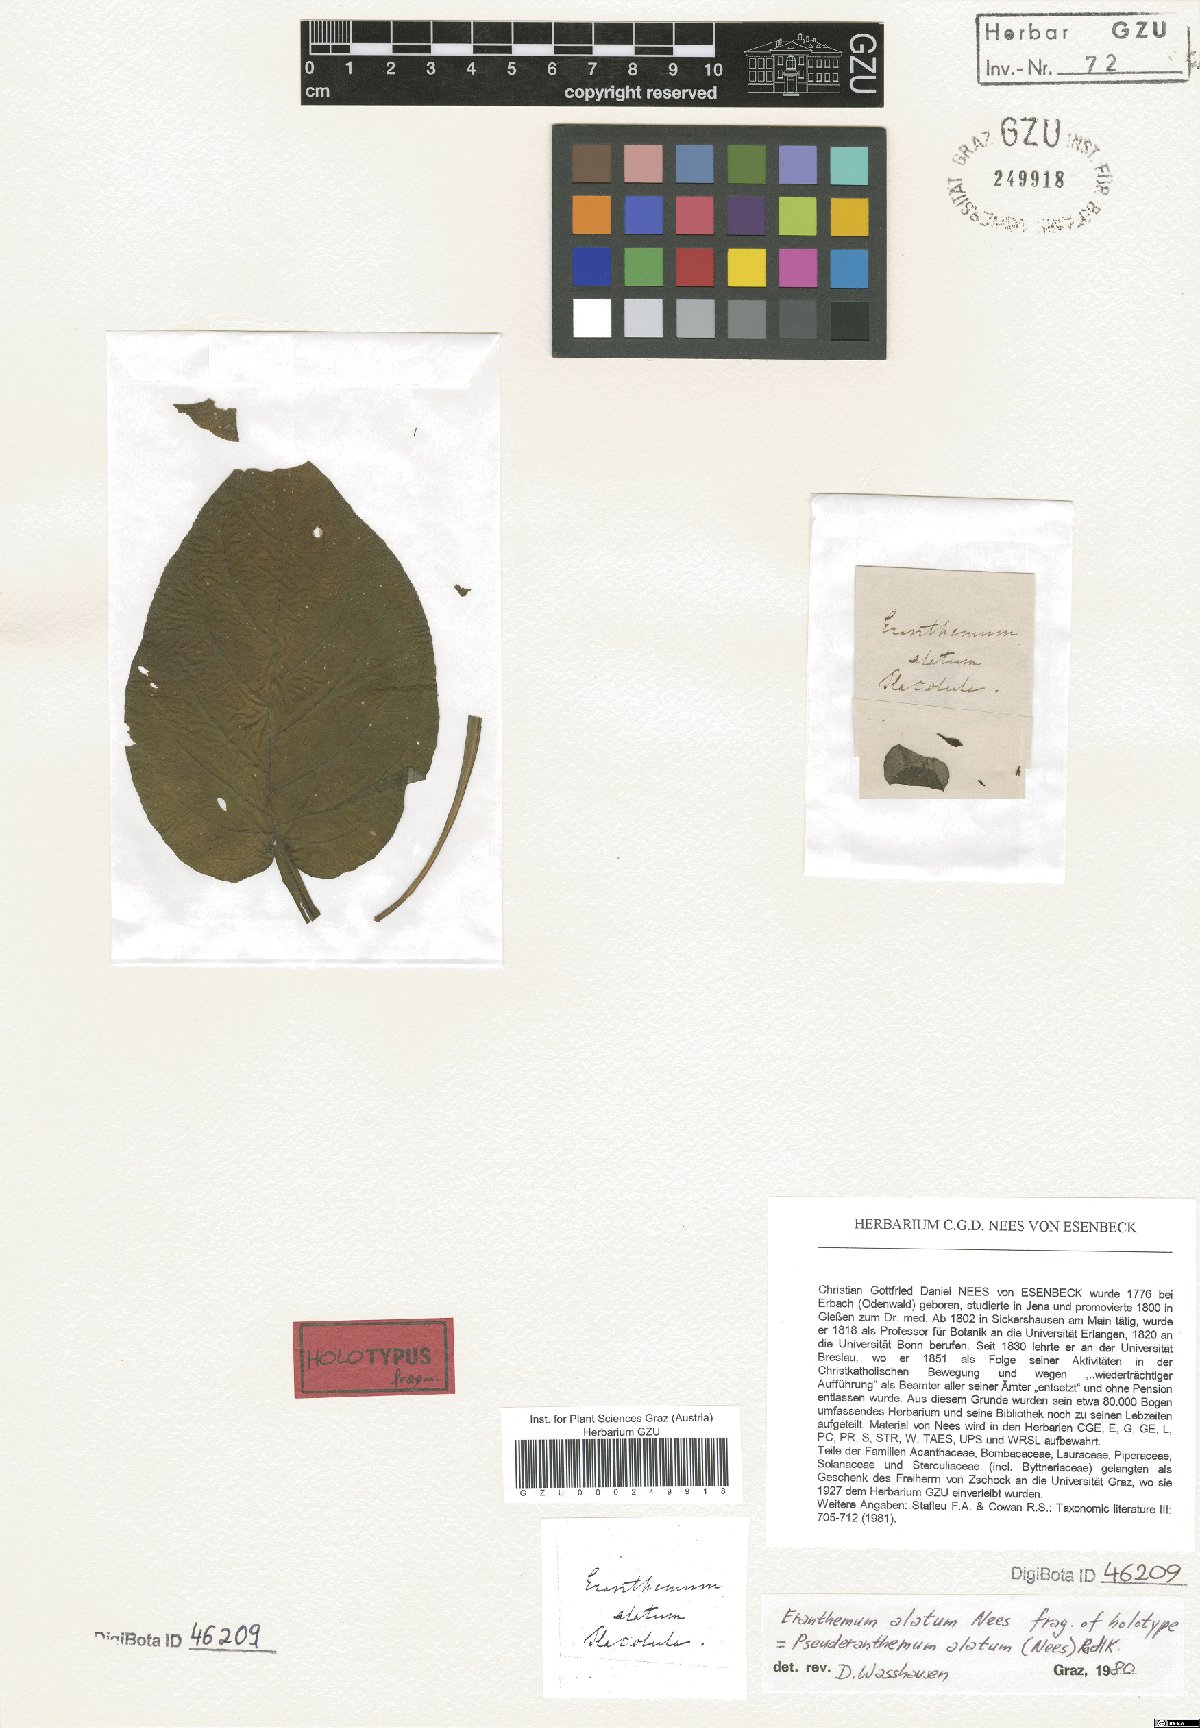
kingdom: Plantae
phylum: Tracheophyta
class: Magnoliopsida
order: Lamiales
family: Acanthaceae
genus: Pseuderanthemum
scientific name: Pseuderanthemum alatum
